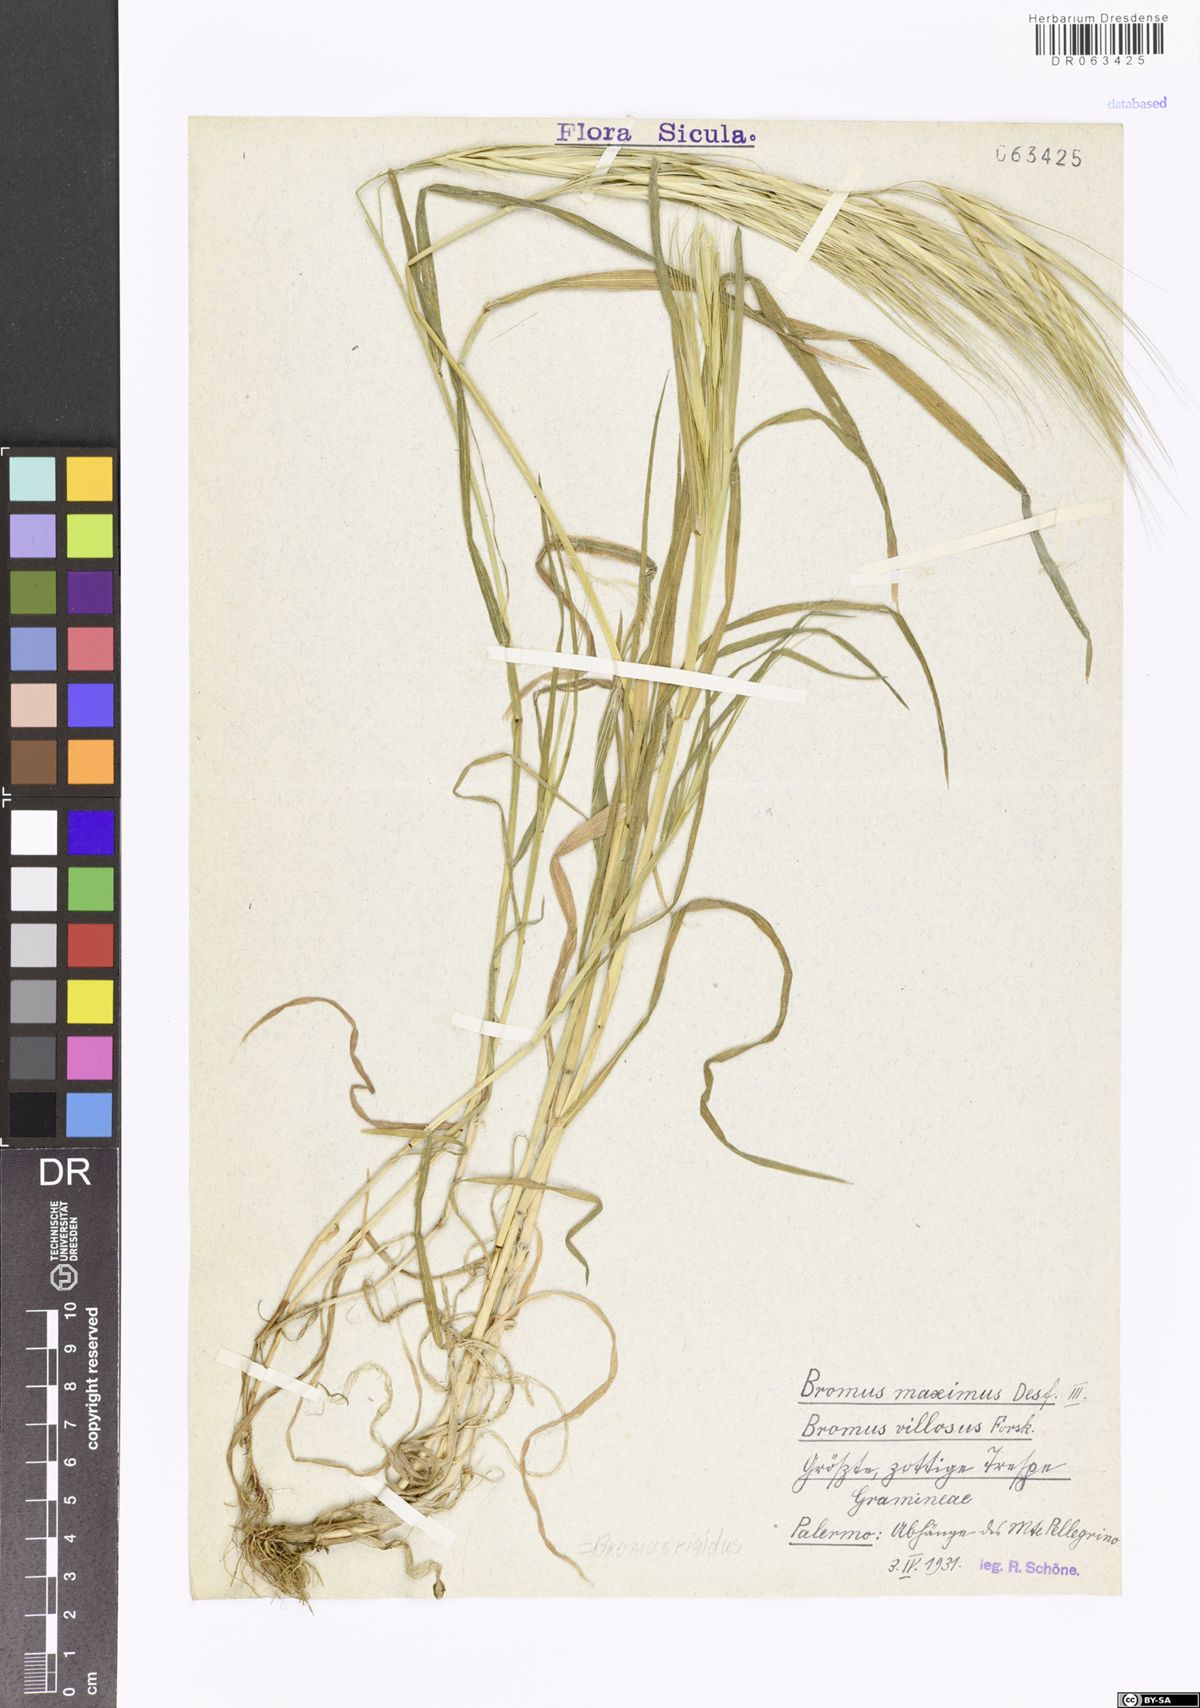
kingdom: Plantae
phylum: Tracheophyta
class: Liliopsida
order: Poales
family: Poaceae
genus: Bromus
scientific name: Bromus rigidus
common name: Ripgut brome
